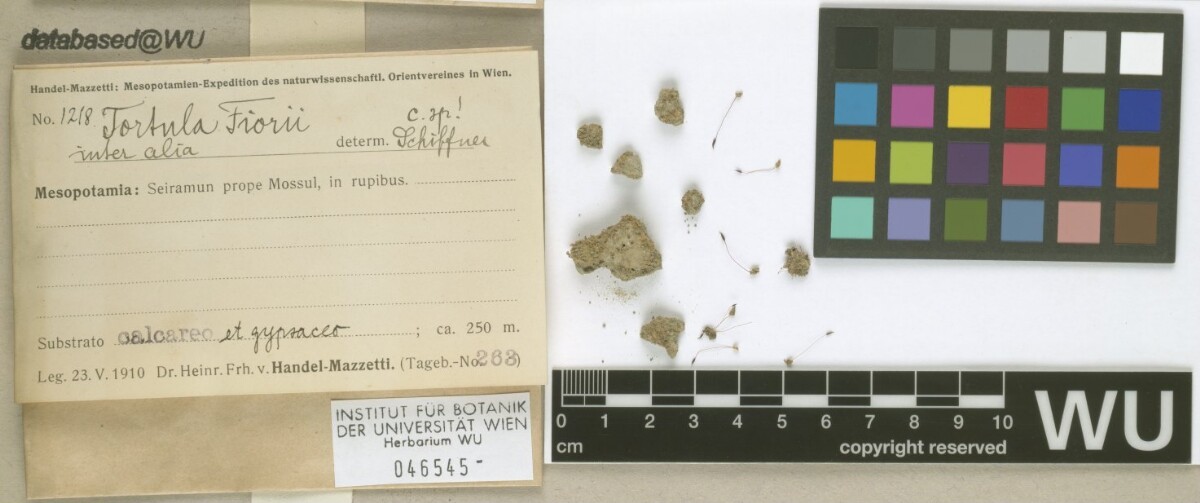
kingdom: Plantae
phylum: Bryophyta
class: Bryopsida
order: Pottiales
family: Pottiaceae
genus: Tortula
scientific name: Tortula revolvens
